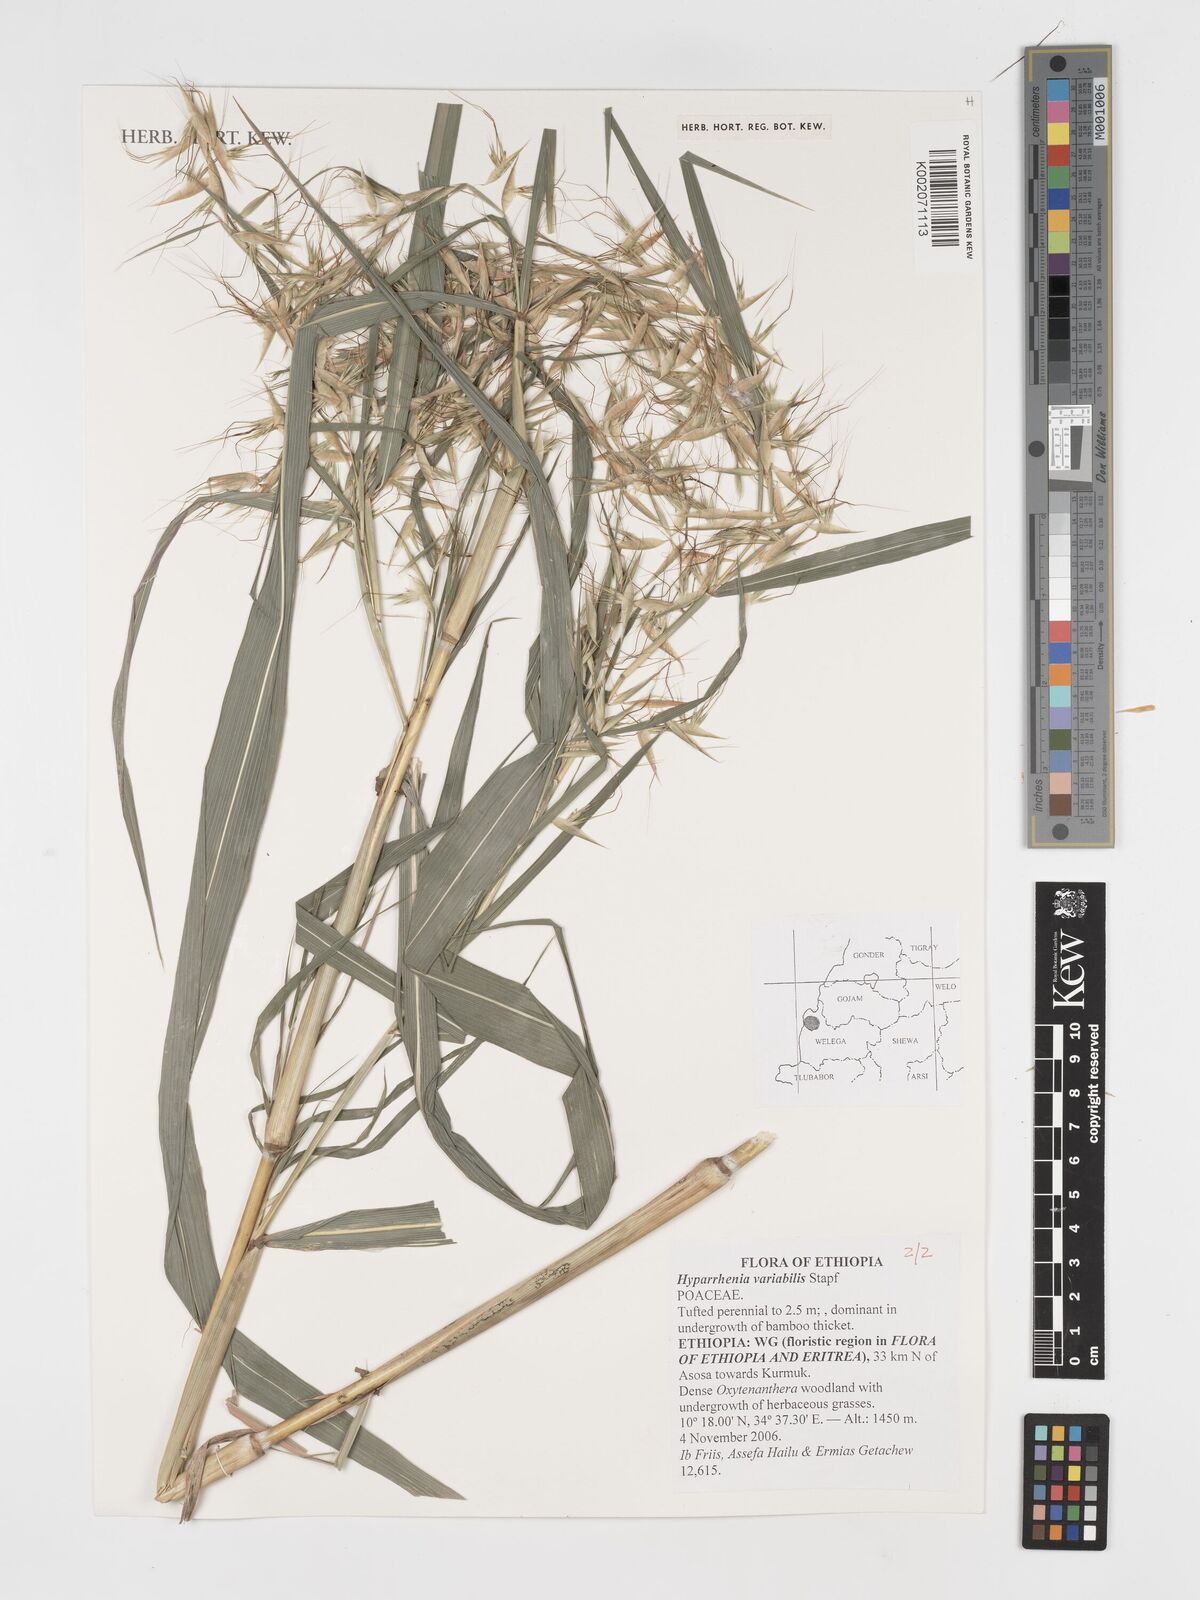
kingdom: Plantae
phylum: Tracheophyta
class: Liliopsida
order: Poales
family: Poaceae
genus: Hyparrhenia
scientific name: Hyparrhenia variabilis
